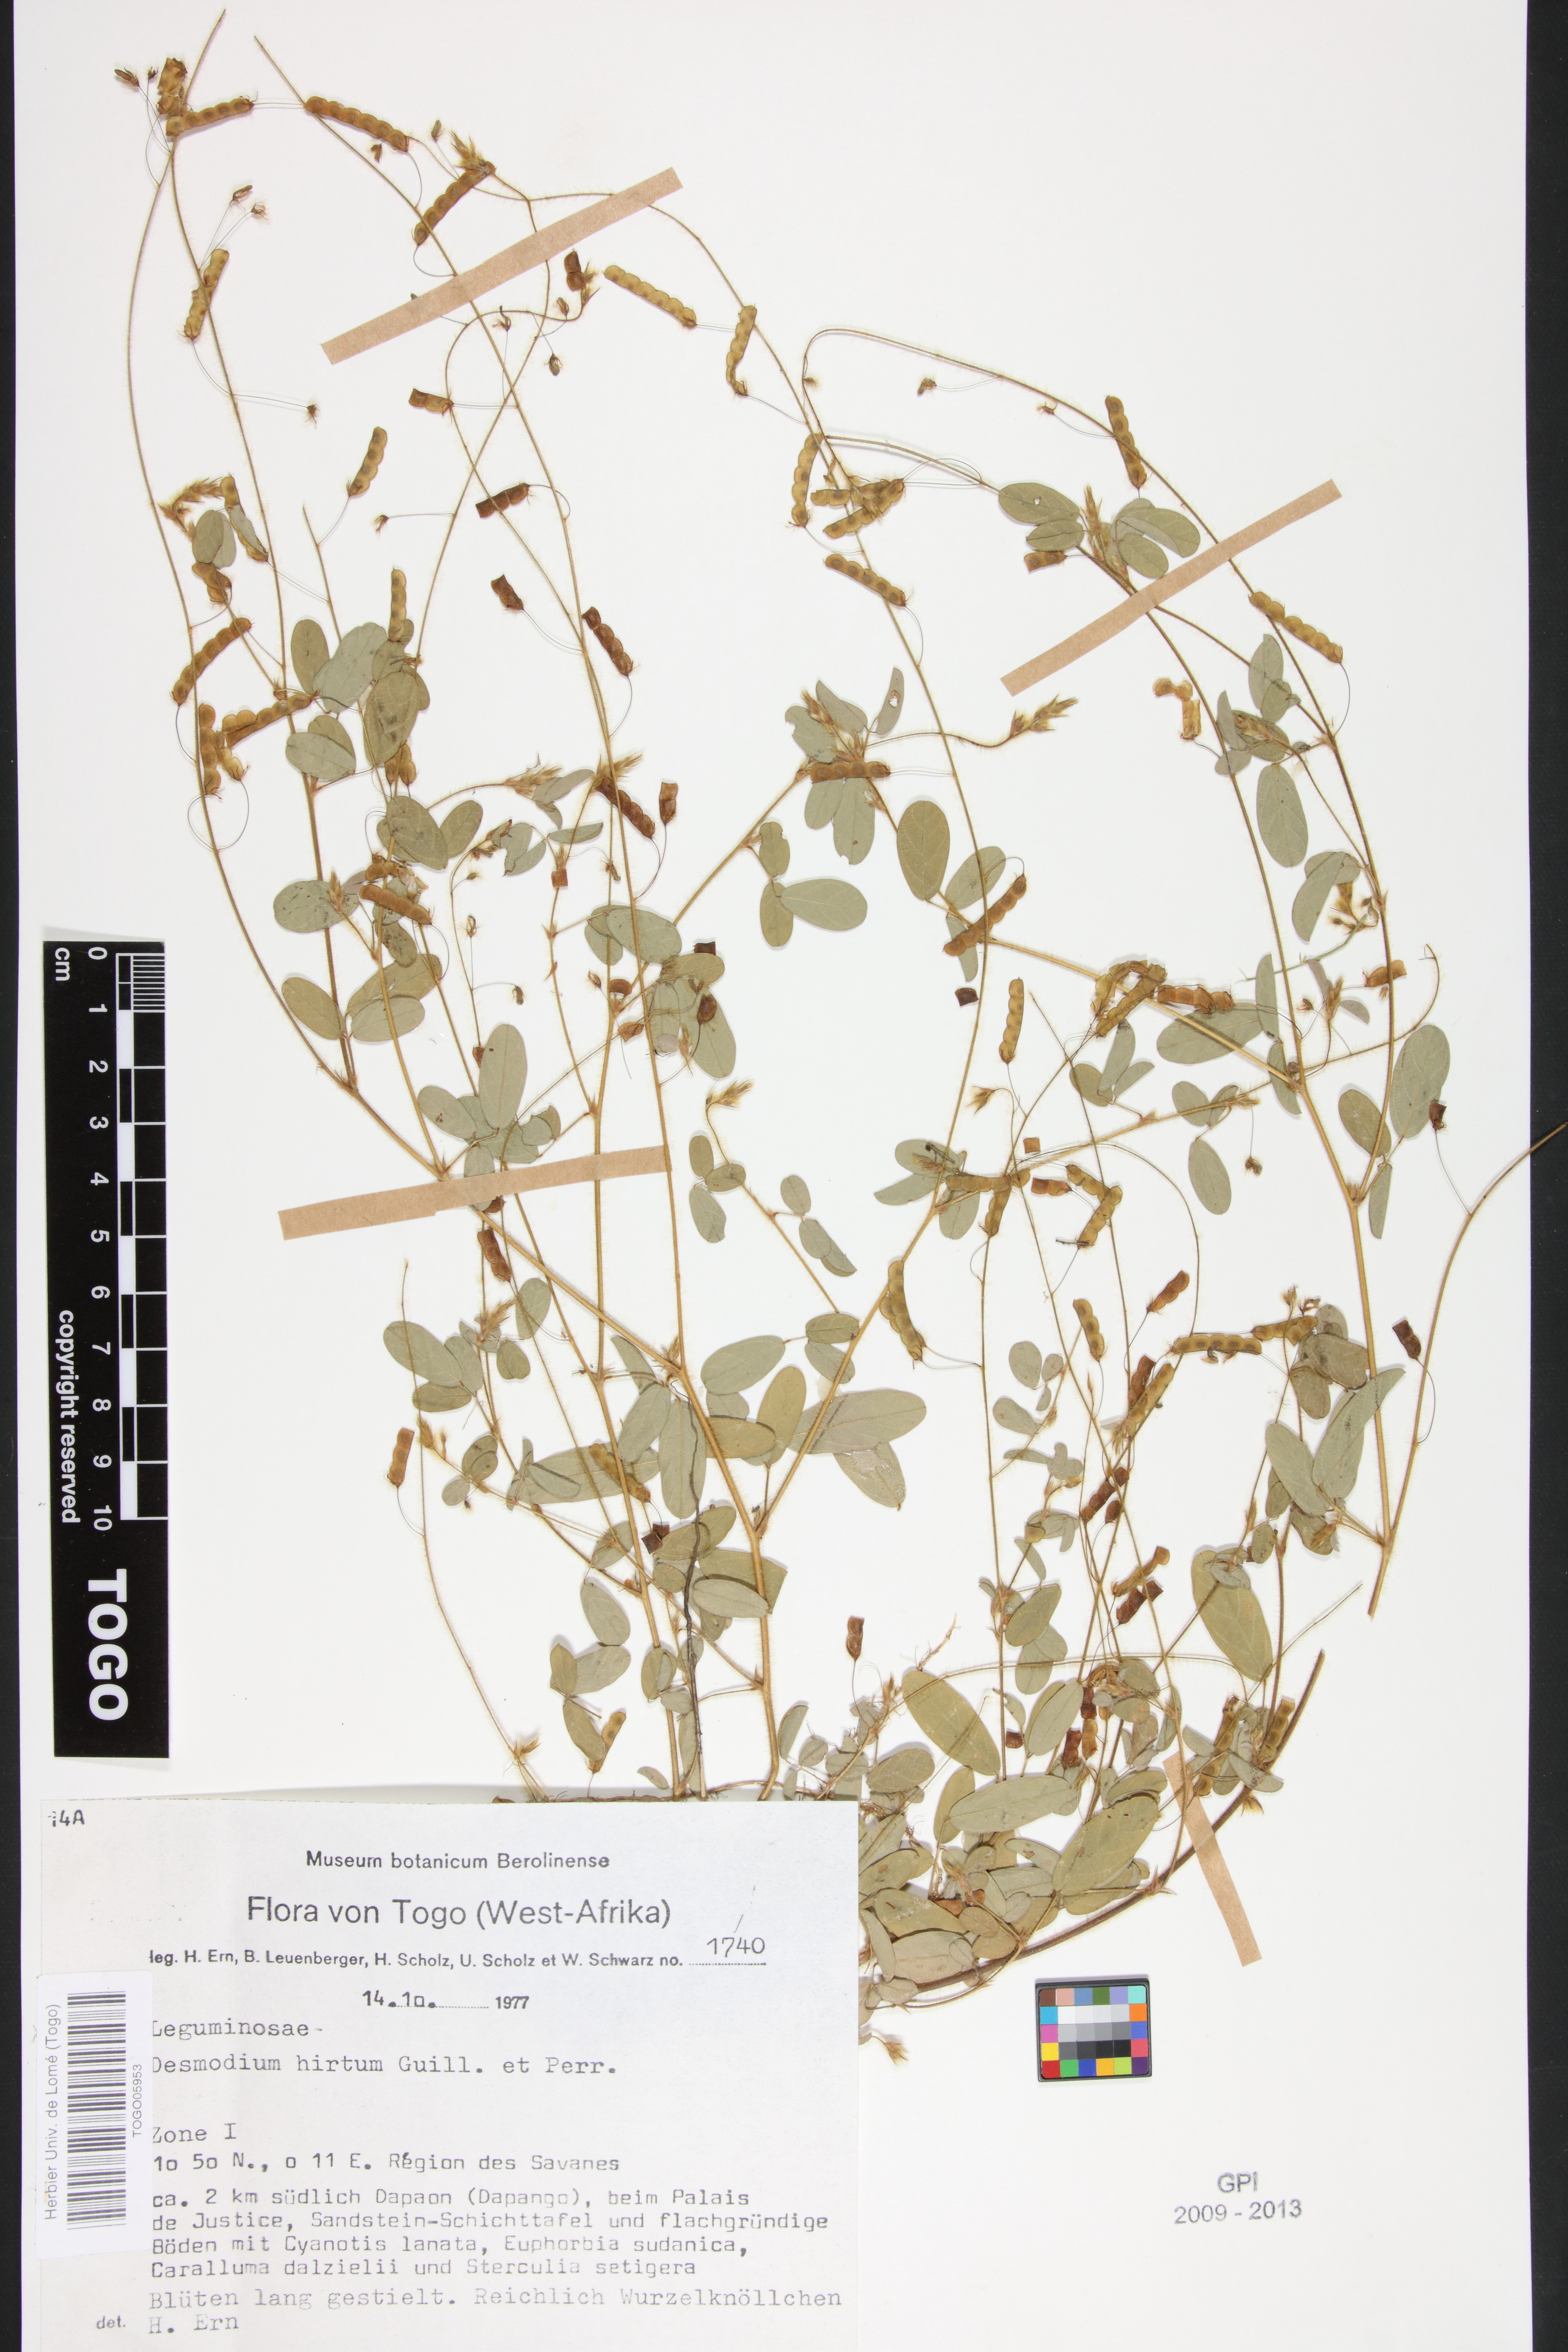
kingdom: Plantae
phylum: Tracheophyta
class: Magnoliopsida
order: Fabales
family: Fabaceae
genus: Grona
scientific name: Grona hirta
